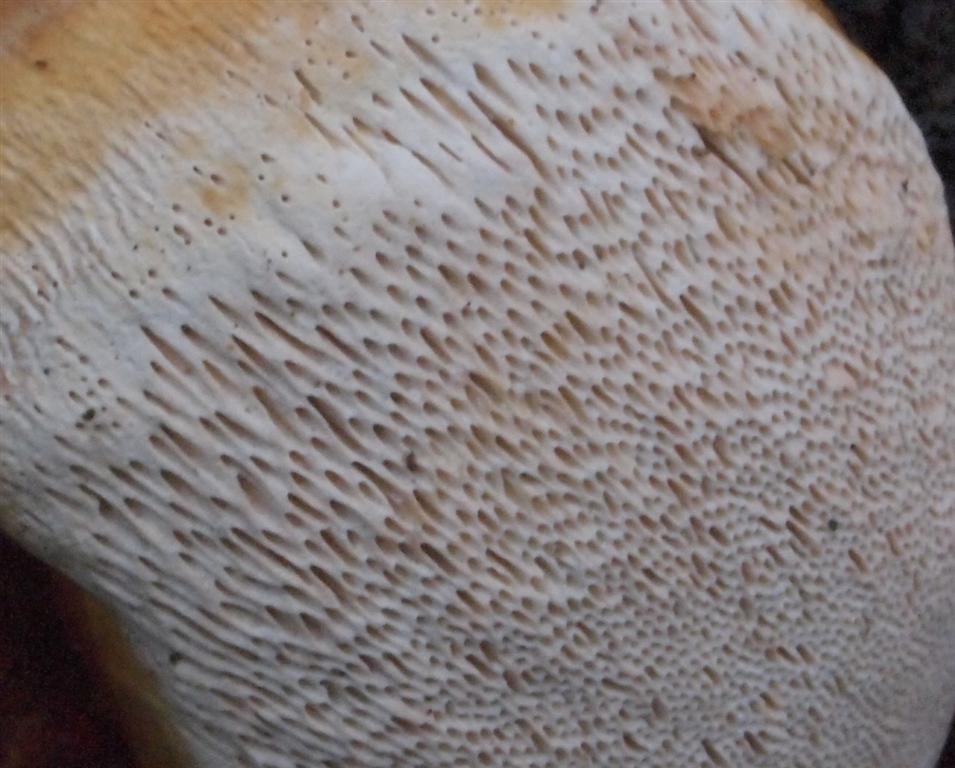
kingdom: Fungi
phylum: Basidiomycota
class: Agaricomycetes
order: Polyporales
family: Fomitopsidaceae
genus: Fomitopsis
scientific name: Fomitopsis pinicola
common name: randbæltet hovporesvamp
